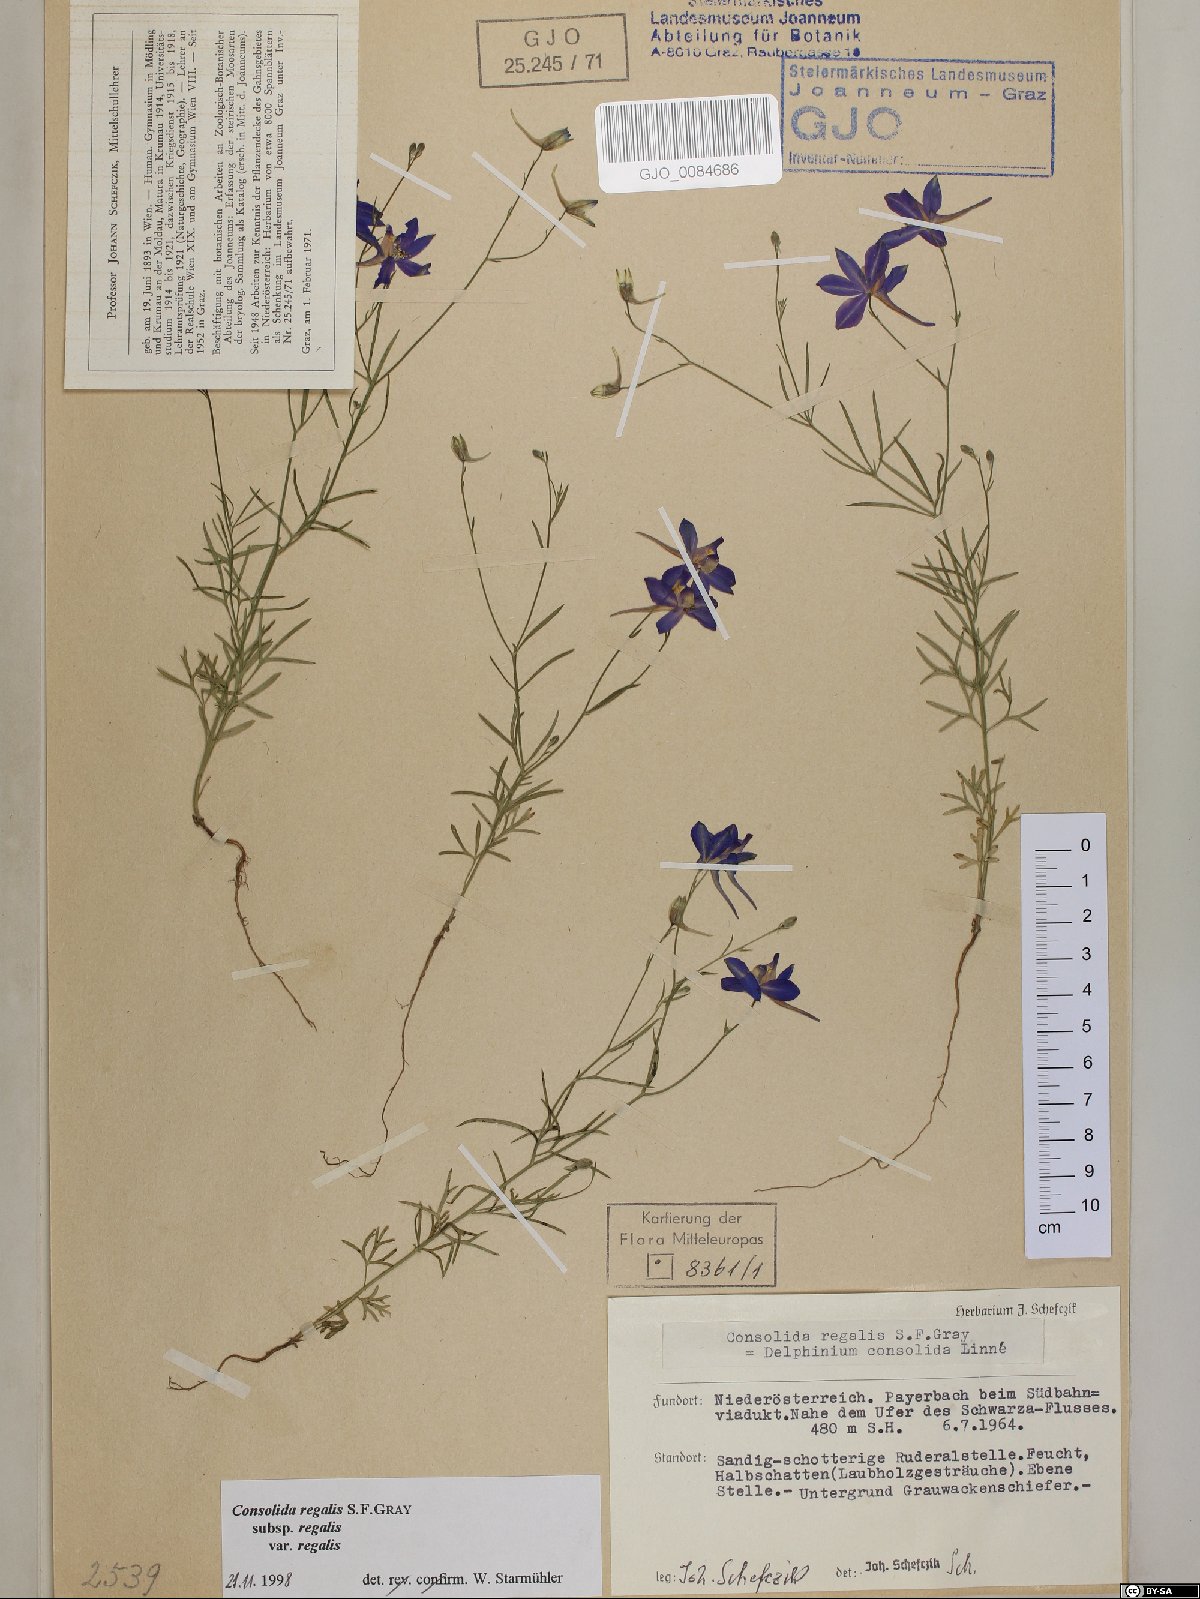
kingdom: Plantae
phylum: Tracheophyta
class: Magnoliopsida
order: Ranunculales
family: Ranunculaceae
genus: Delphinium
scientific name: Delphinium consolida
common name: Branching larkspur
